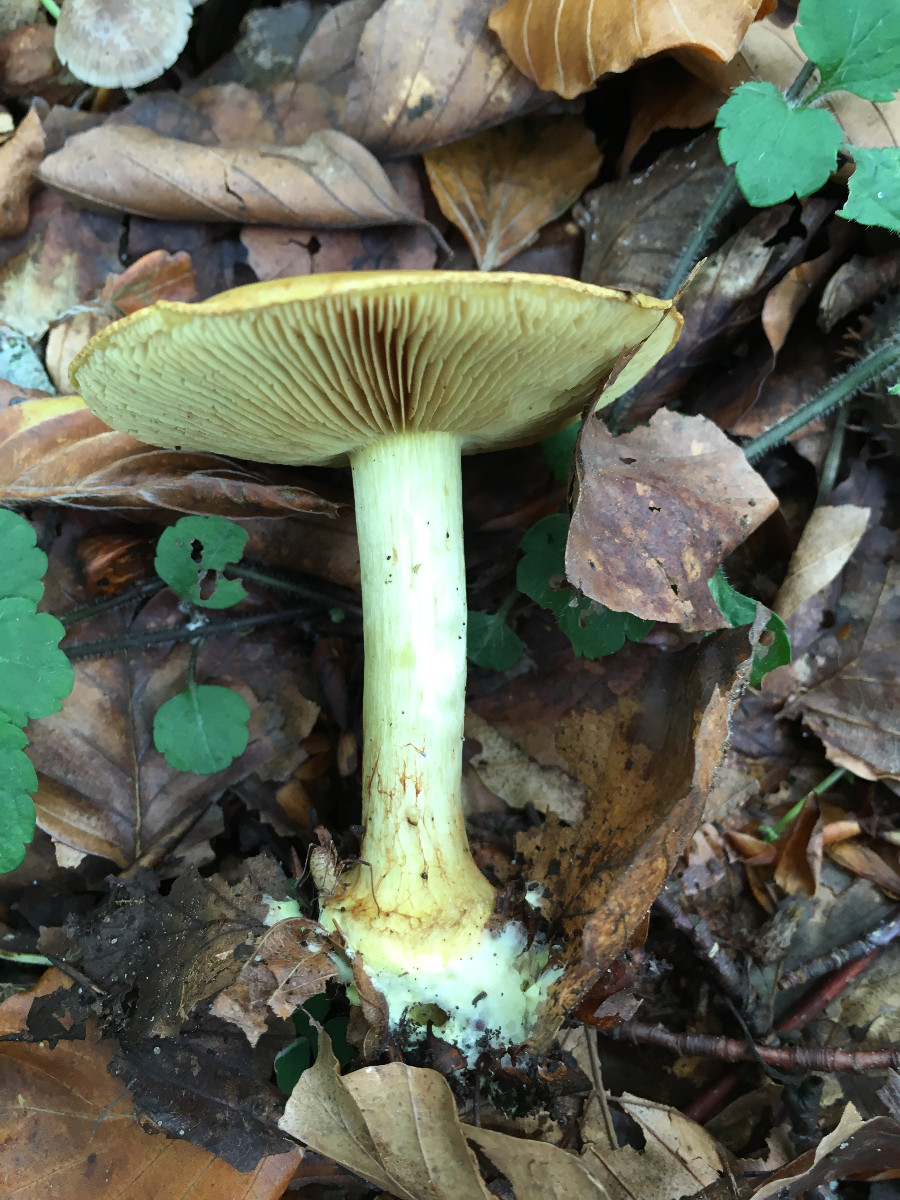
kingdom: Fungi
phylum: Basidiomycota
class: Agaricomycetes
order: Agaricales
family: Cortinariaceae
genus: Calonarius
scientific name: Calonarius citrinus
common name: citrongul slørhat
